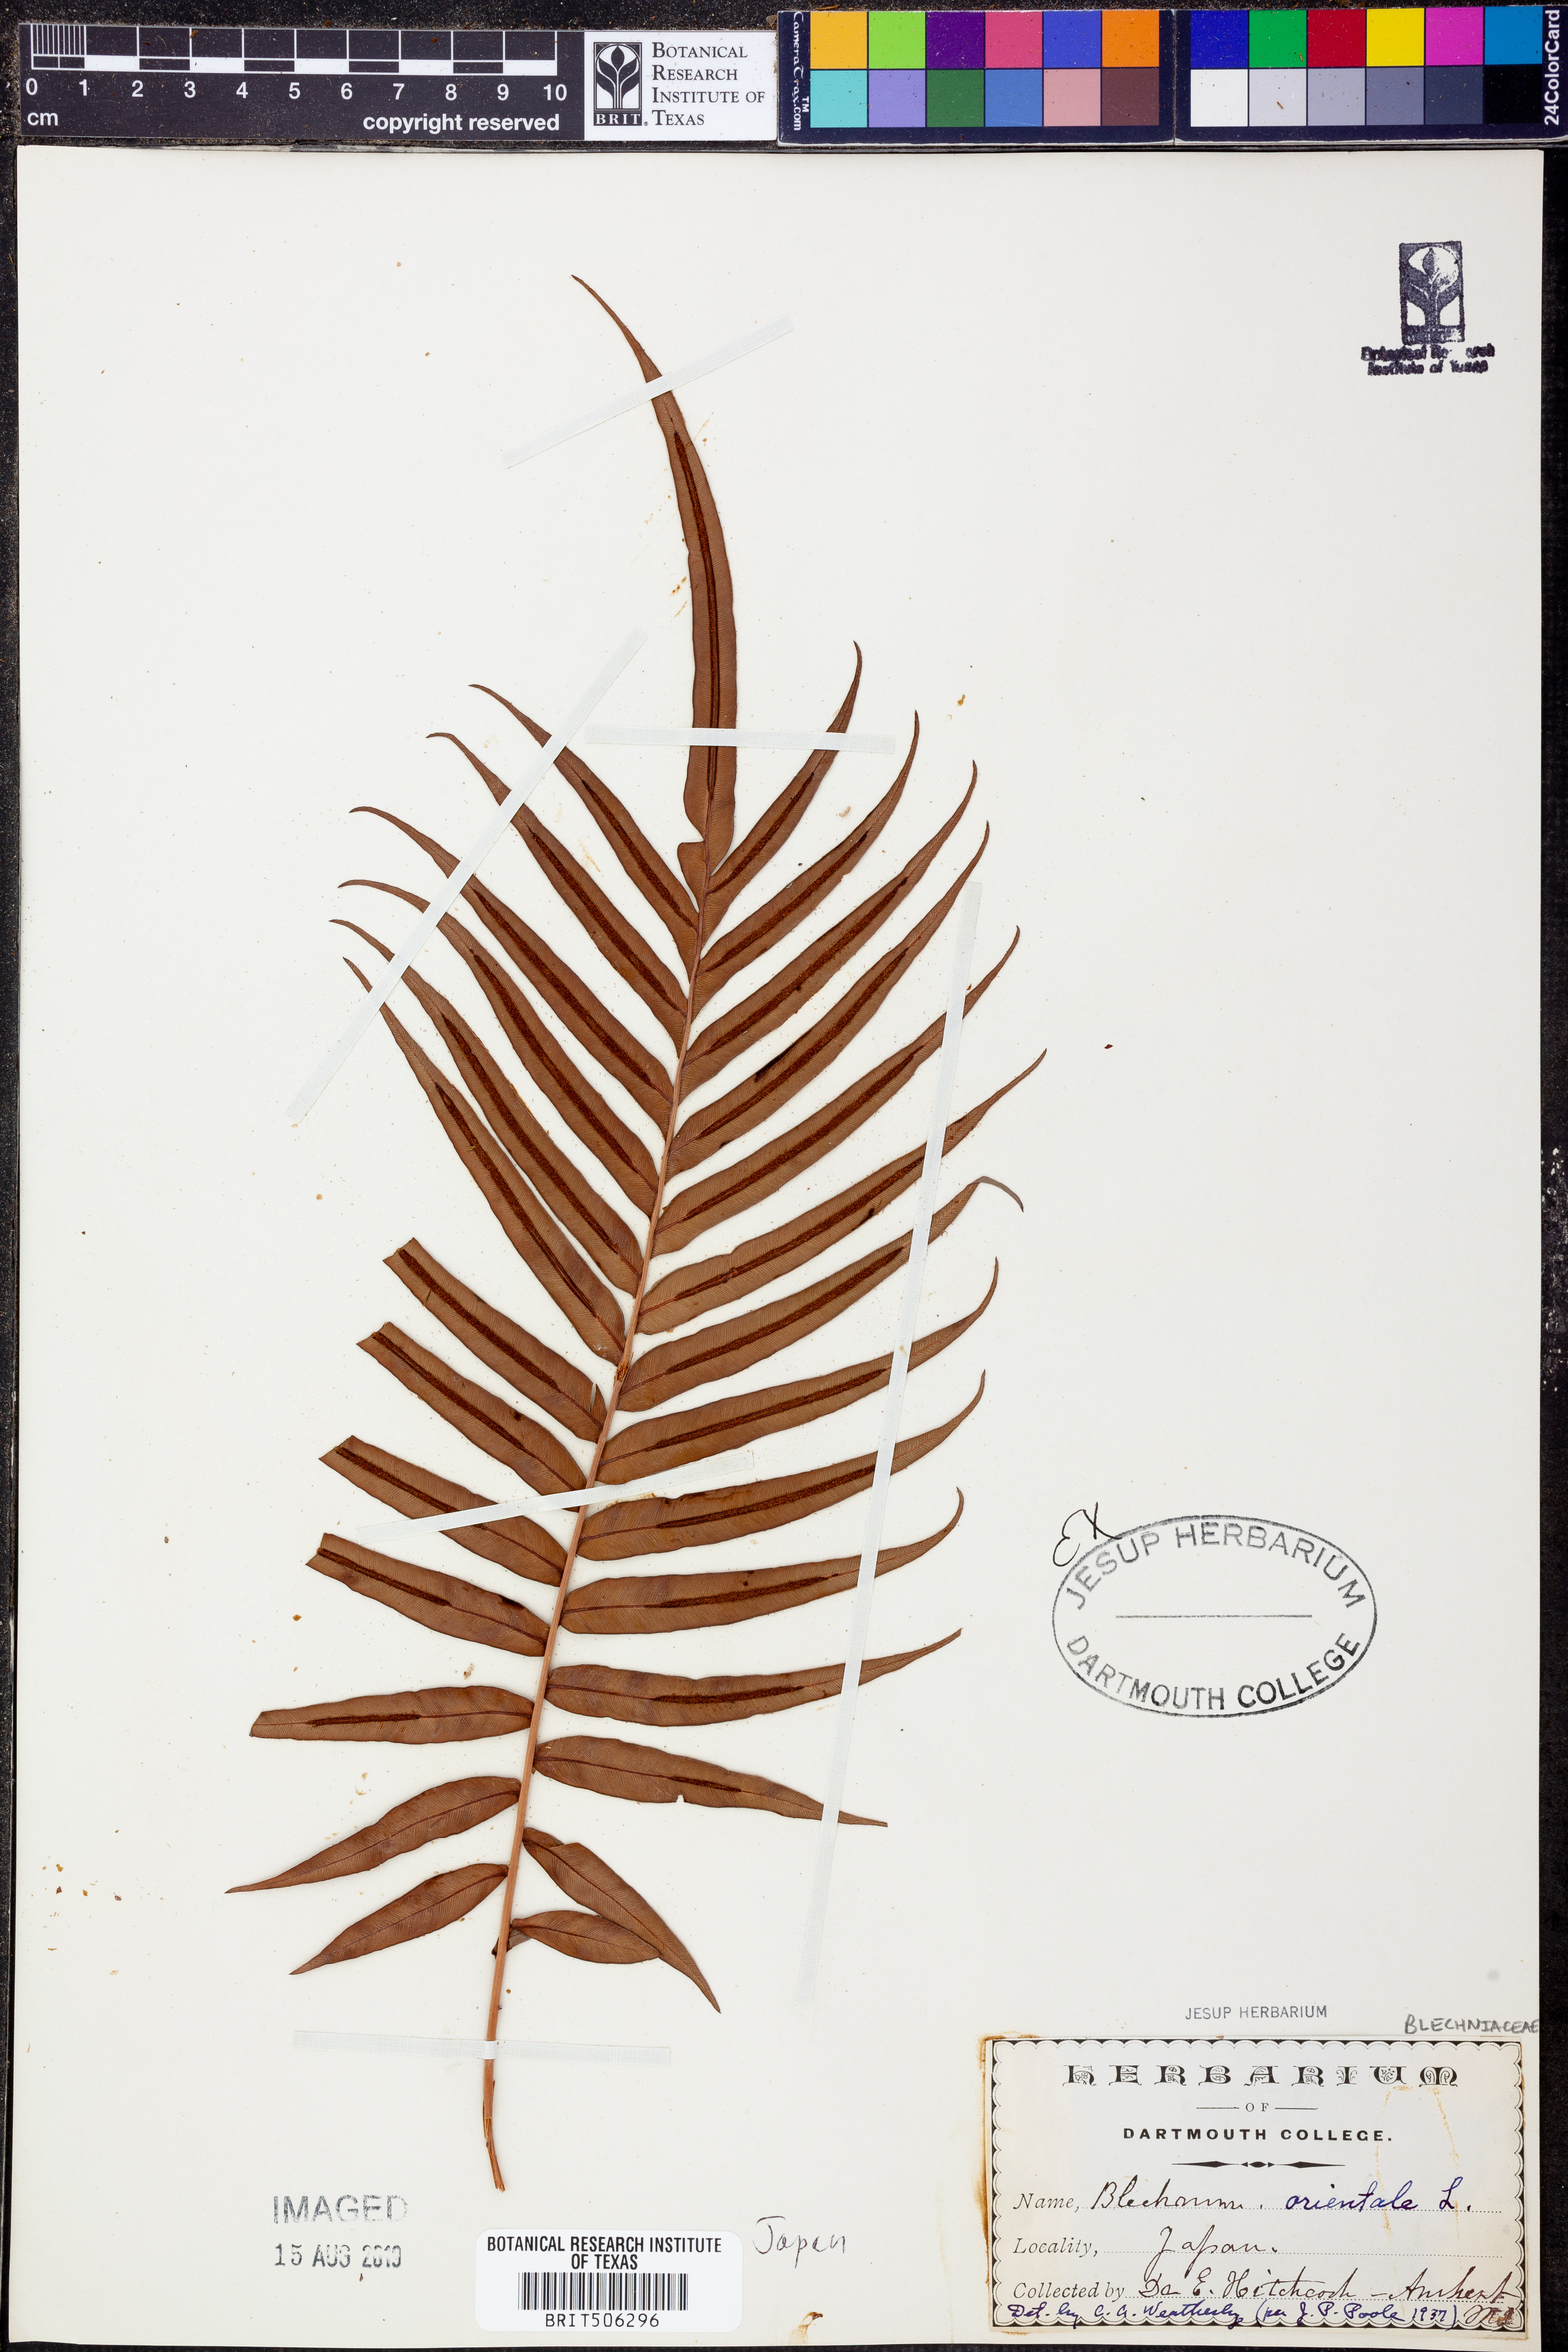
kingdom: Plantae
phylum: Tracheophyta
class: Polypodiopsida
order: Polypodiales
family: Blechnaceae
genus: Blechnopsis
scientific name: Blechnopsis orientalis
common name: Oriental blechnum
